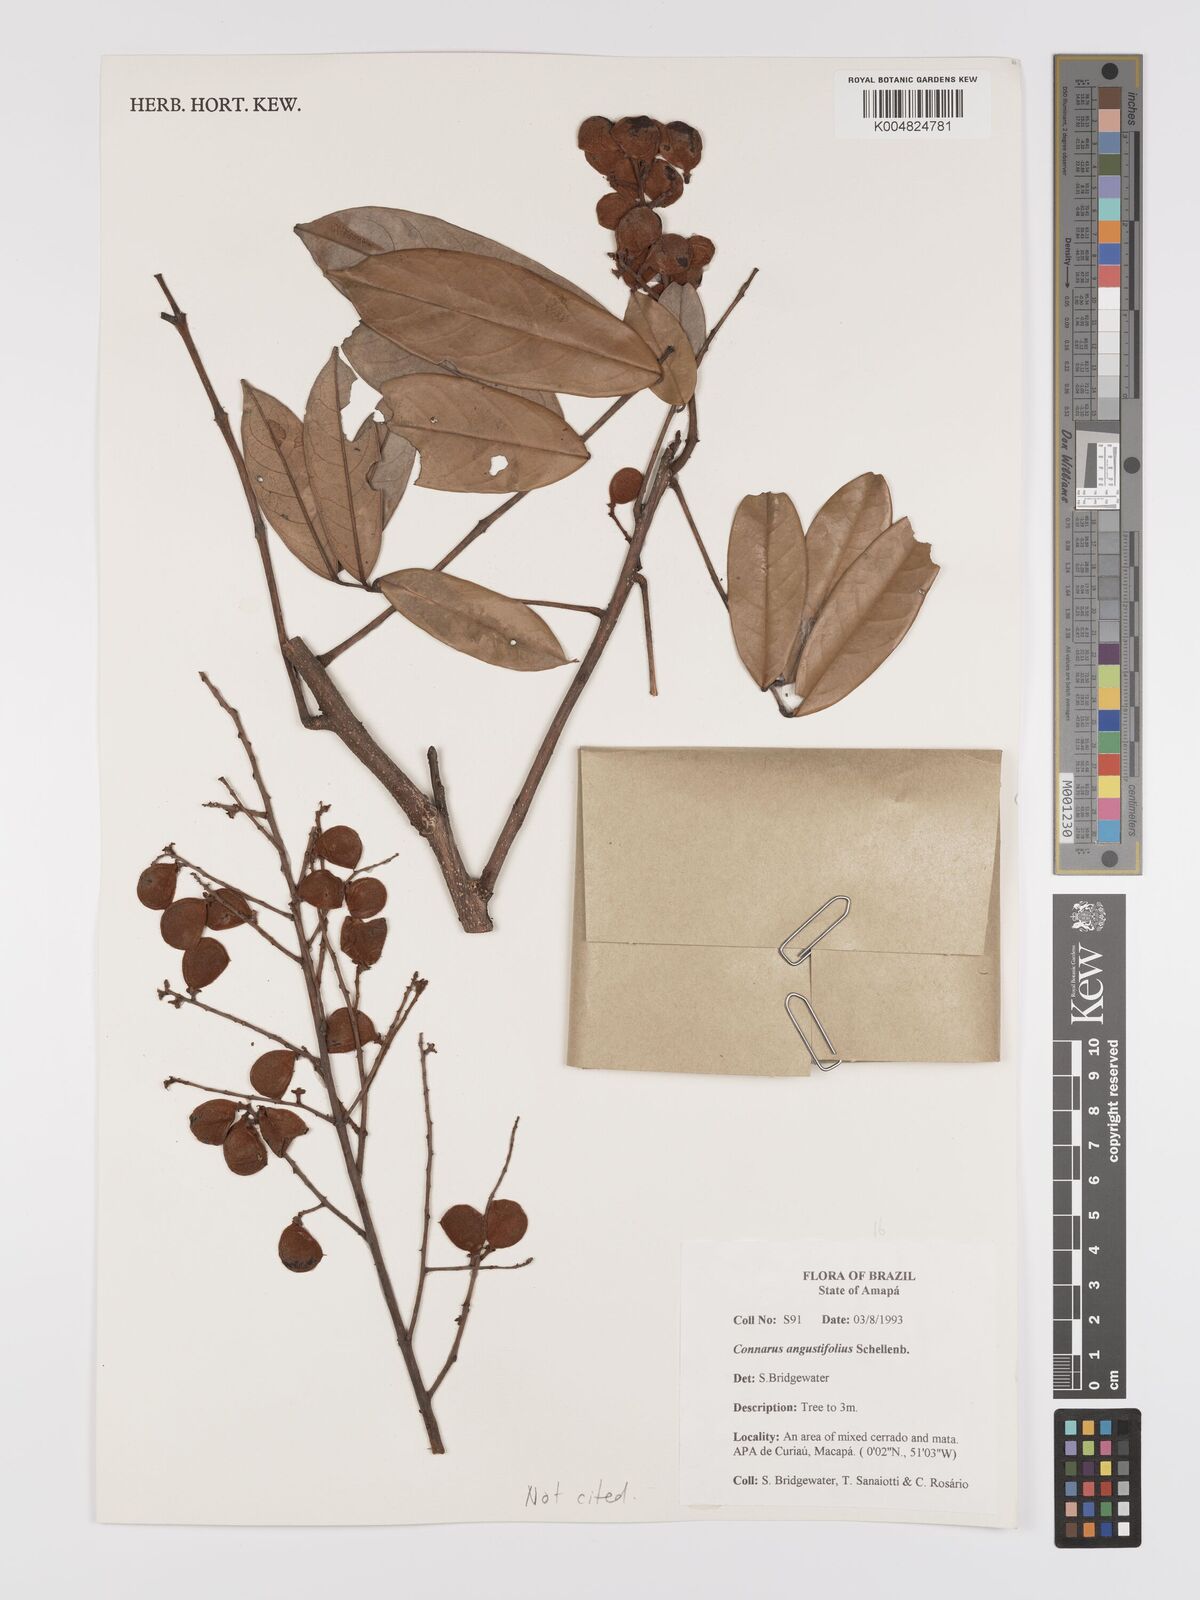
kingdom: Plantae
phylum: Tracheophyta
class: Magnoliopsida
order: Oxalidales
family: Connaraceae
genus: Connarus
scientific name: Connarus perrottetii
